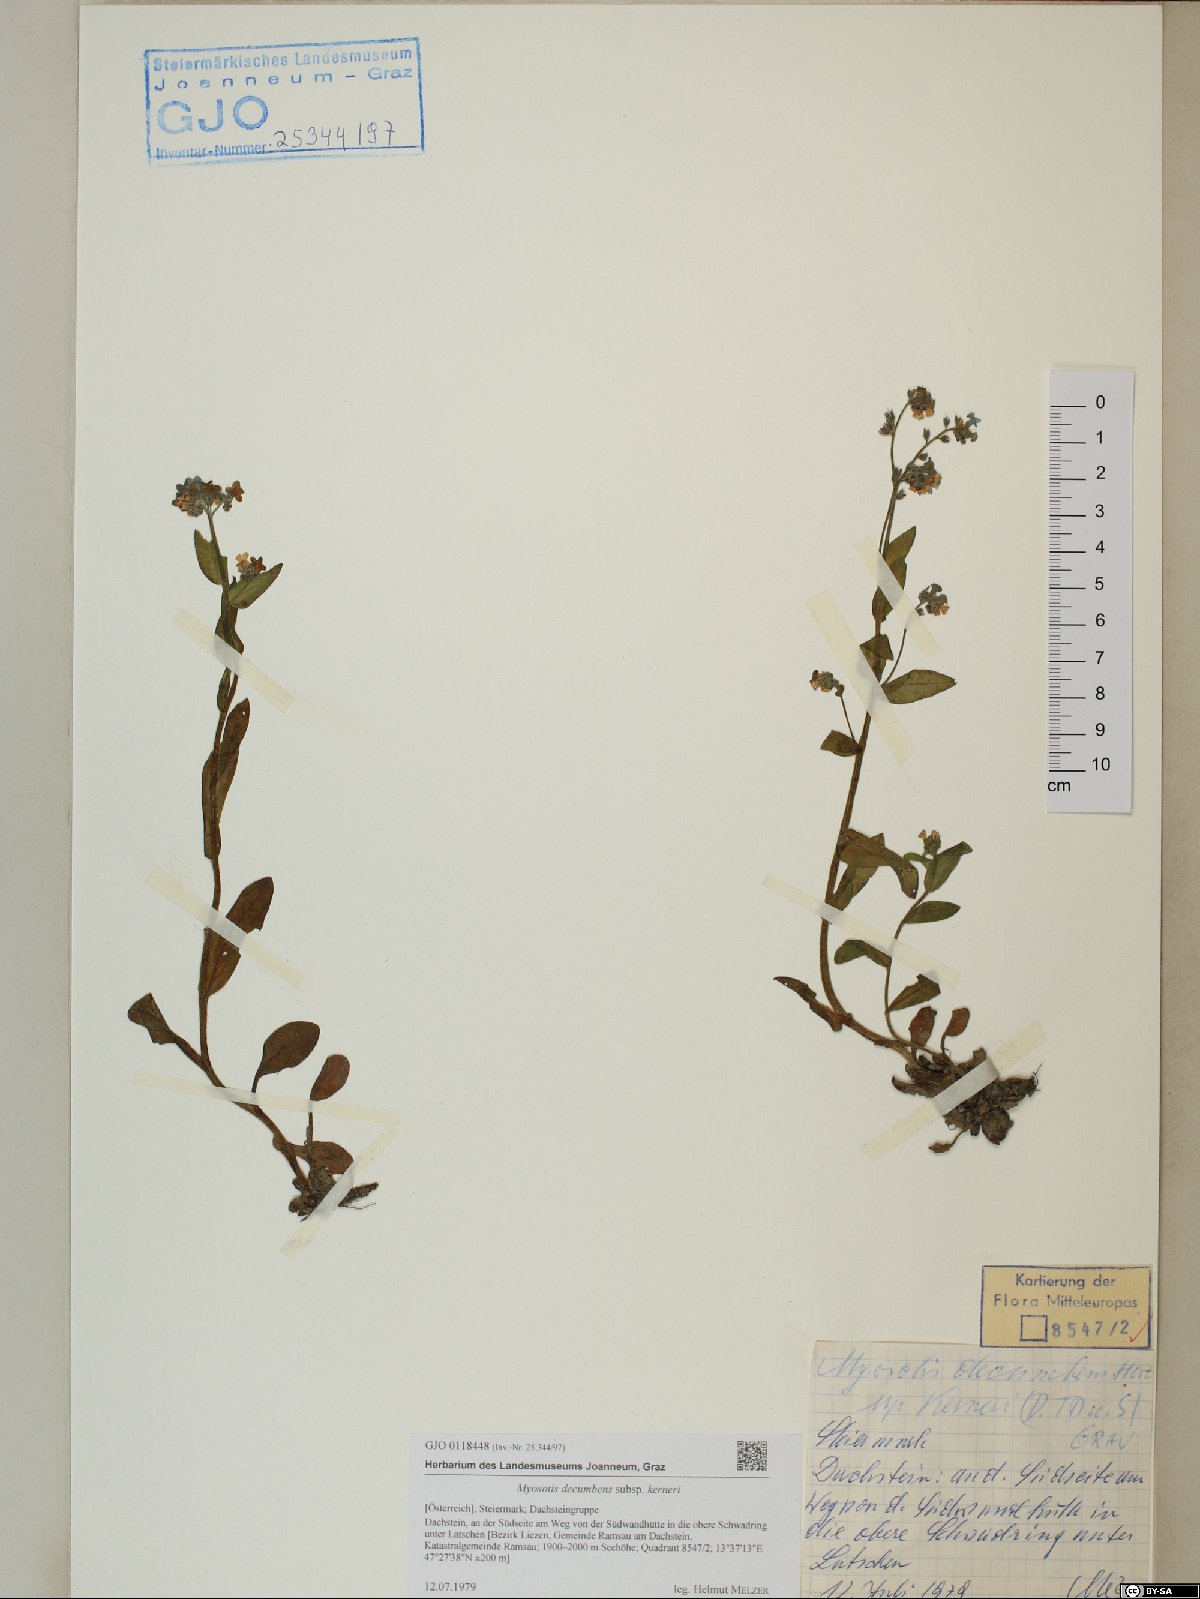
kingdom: Plantae
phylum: Tracheophyta
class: Magnoliopsida
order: Boraginales
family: Boraginaceae
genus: Myosotis
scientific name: Myosotis decumbens
